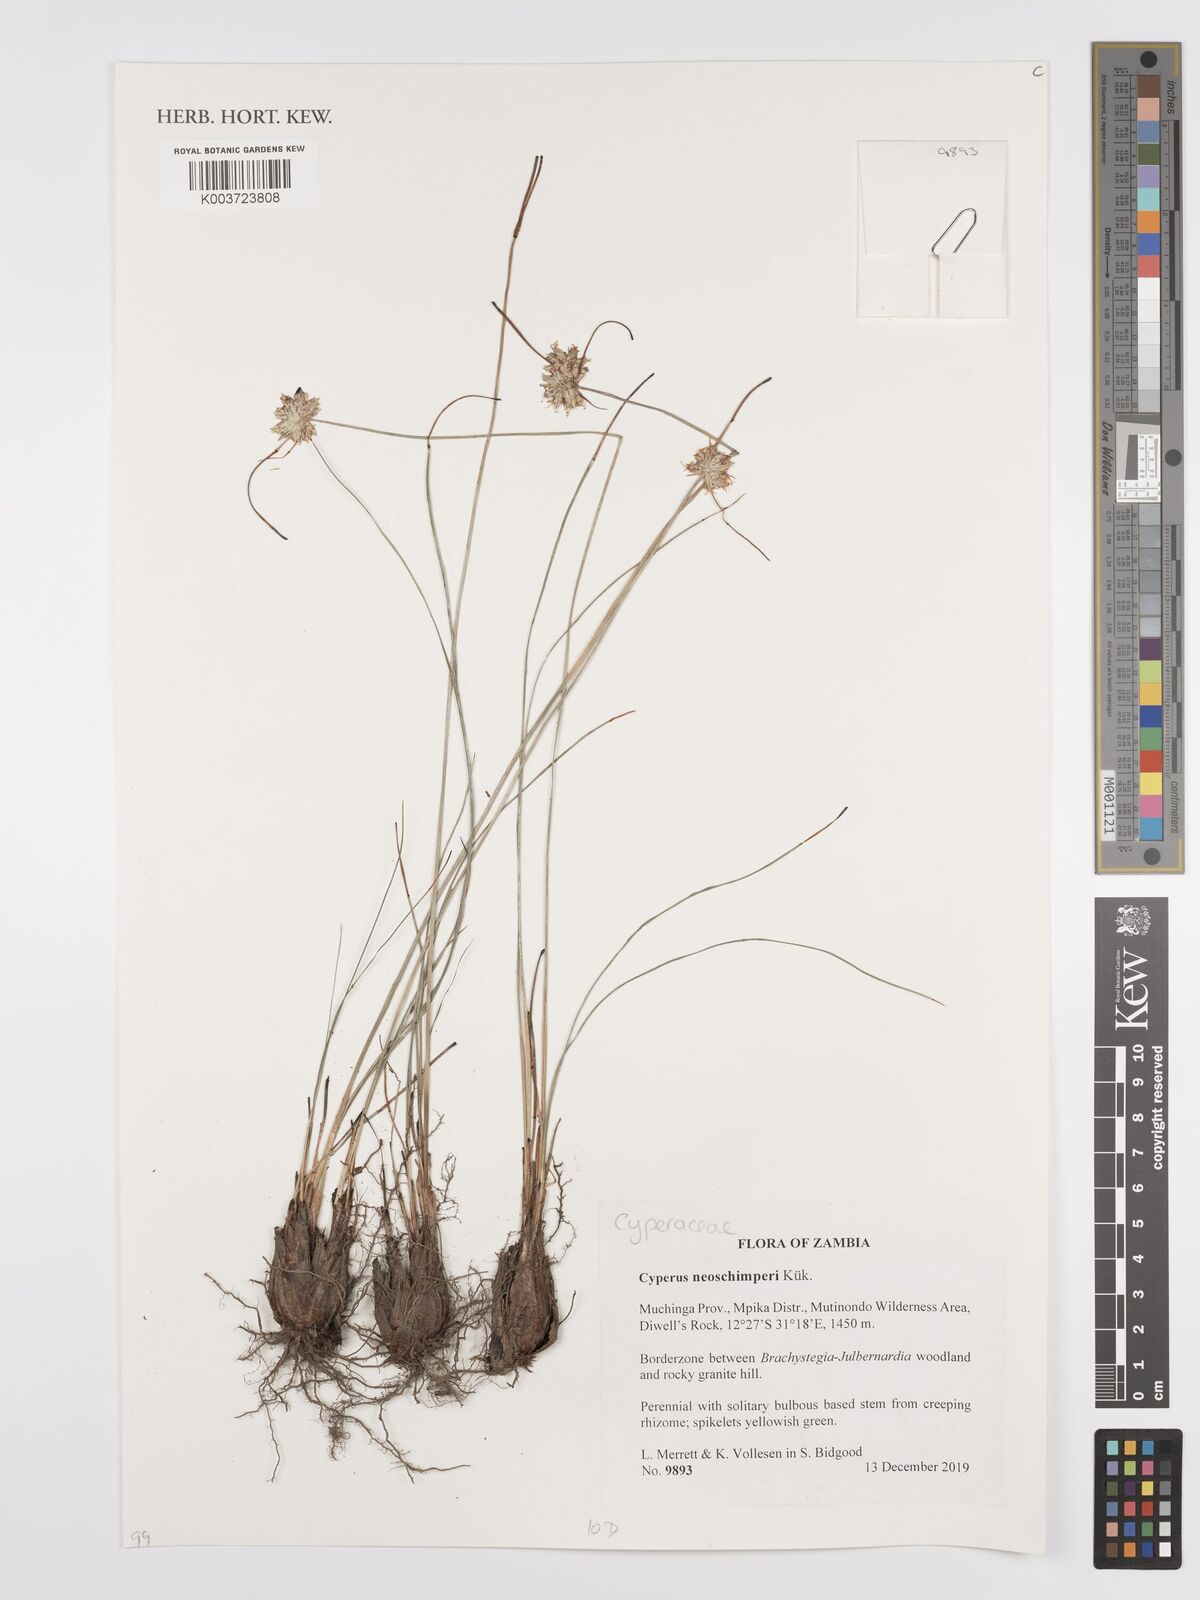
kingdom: Plantae
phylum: Tracheophyta
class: Liliopsida
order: Poales
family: Cyperaceae
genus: Cyperus
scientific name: Cyperus cruentus
